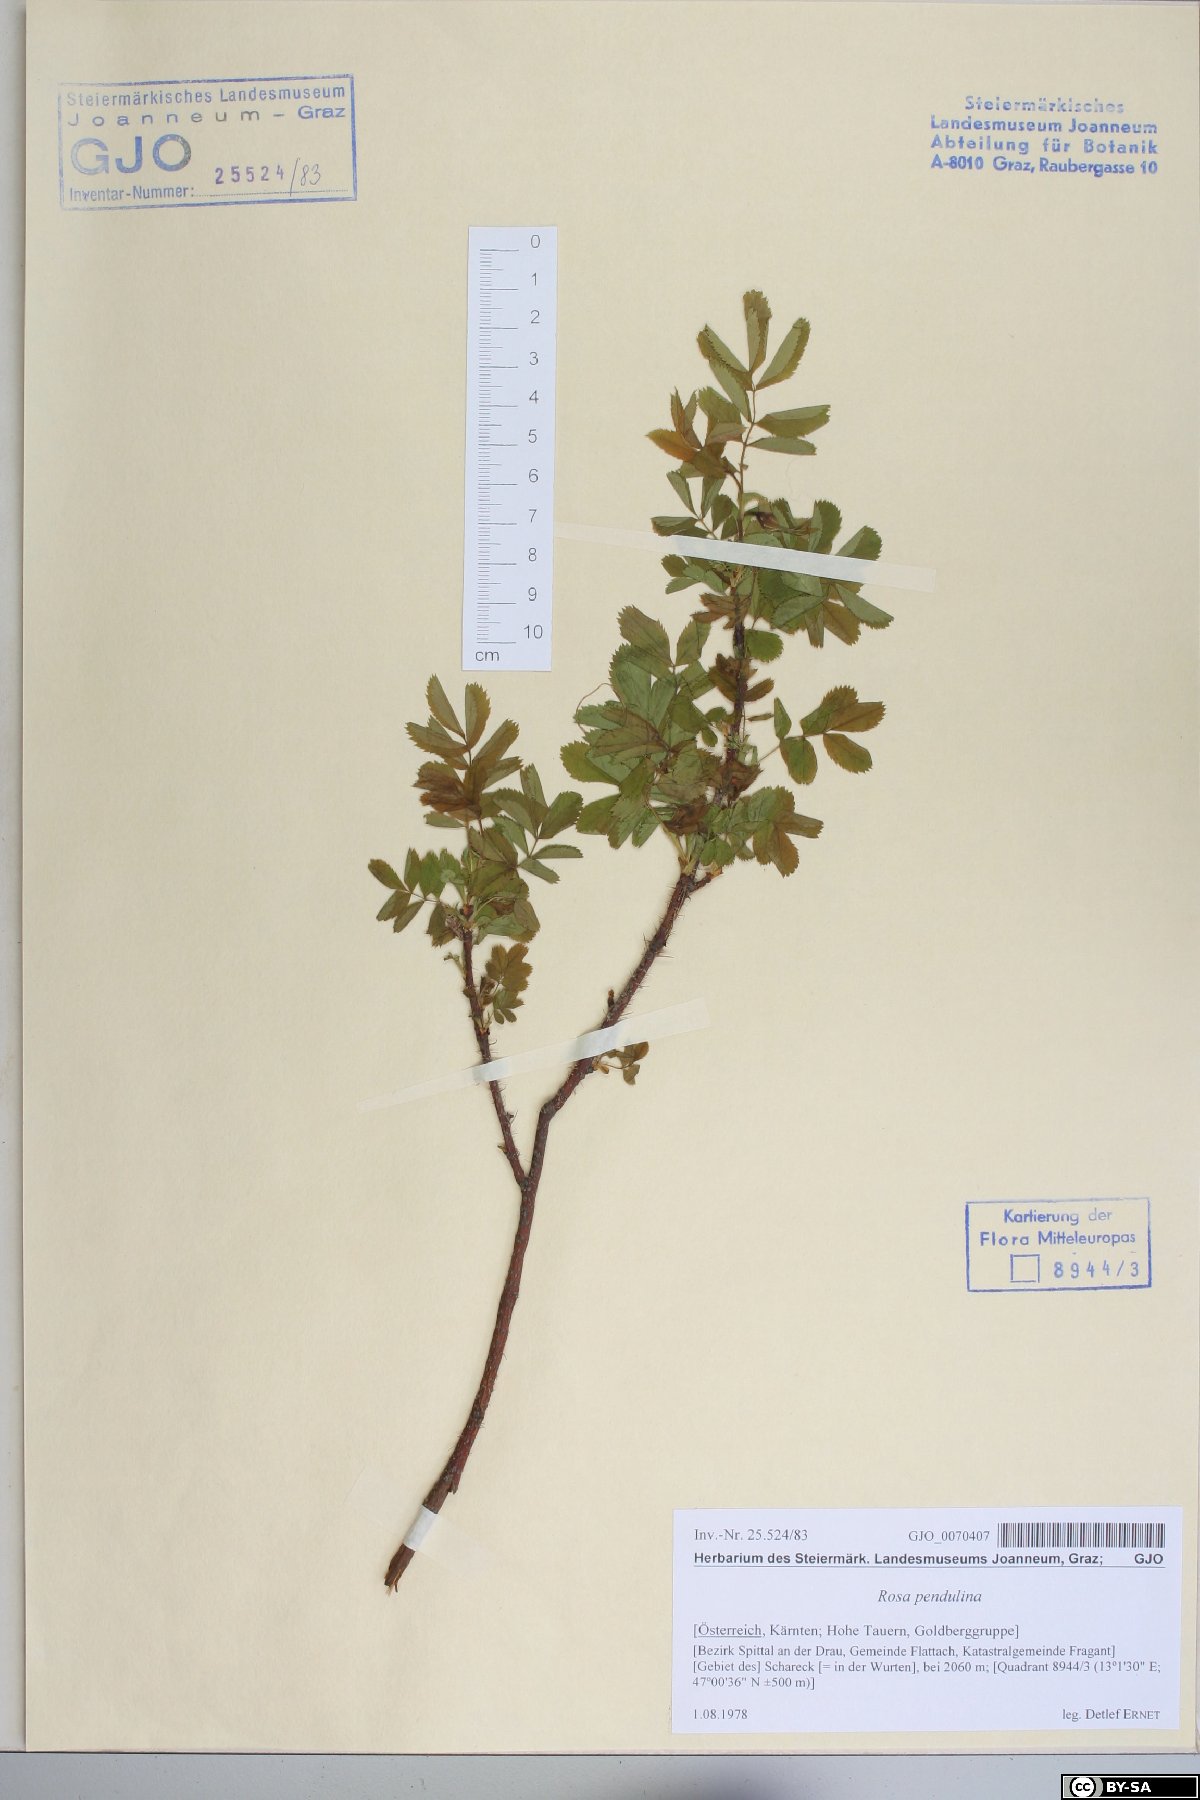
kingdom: Plantae
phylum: Tracheophyta
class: Magnoliopsida
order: Rosales
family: Rosaceae
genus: Rosa
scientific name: Rosa pendulina
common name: Alpine rose
